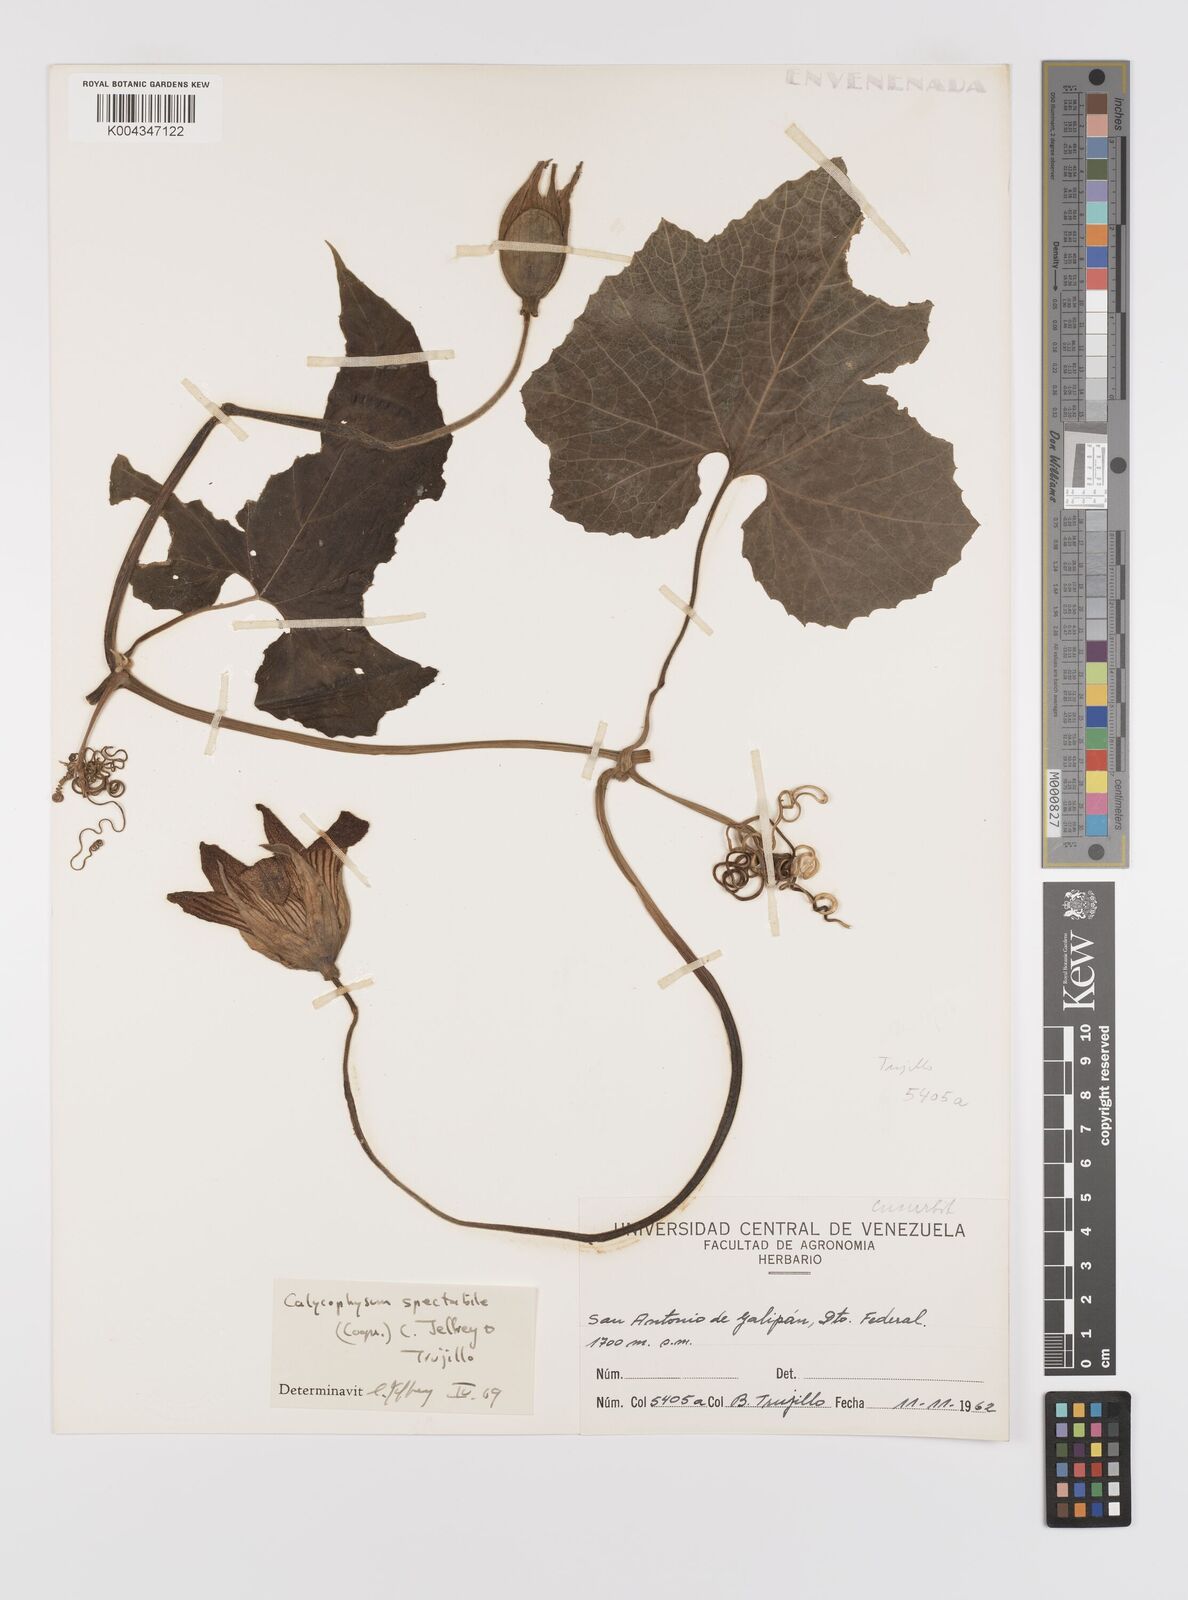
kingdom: Plantae
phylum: Tracheophyta
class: Magnoliopsida
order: Cucurbitales
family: Cucurbitaceae
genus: Calycophysum
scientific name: Calycophysum spectabile
